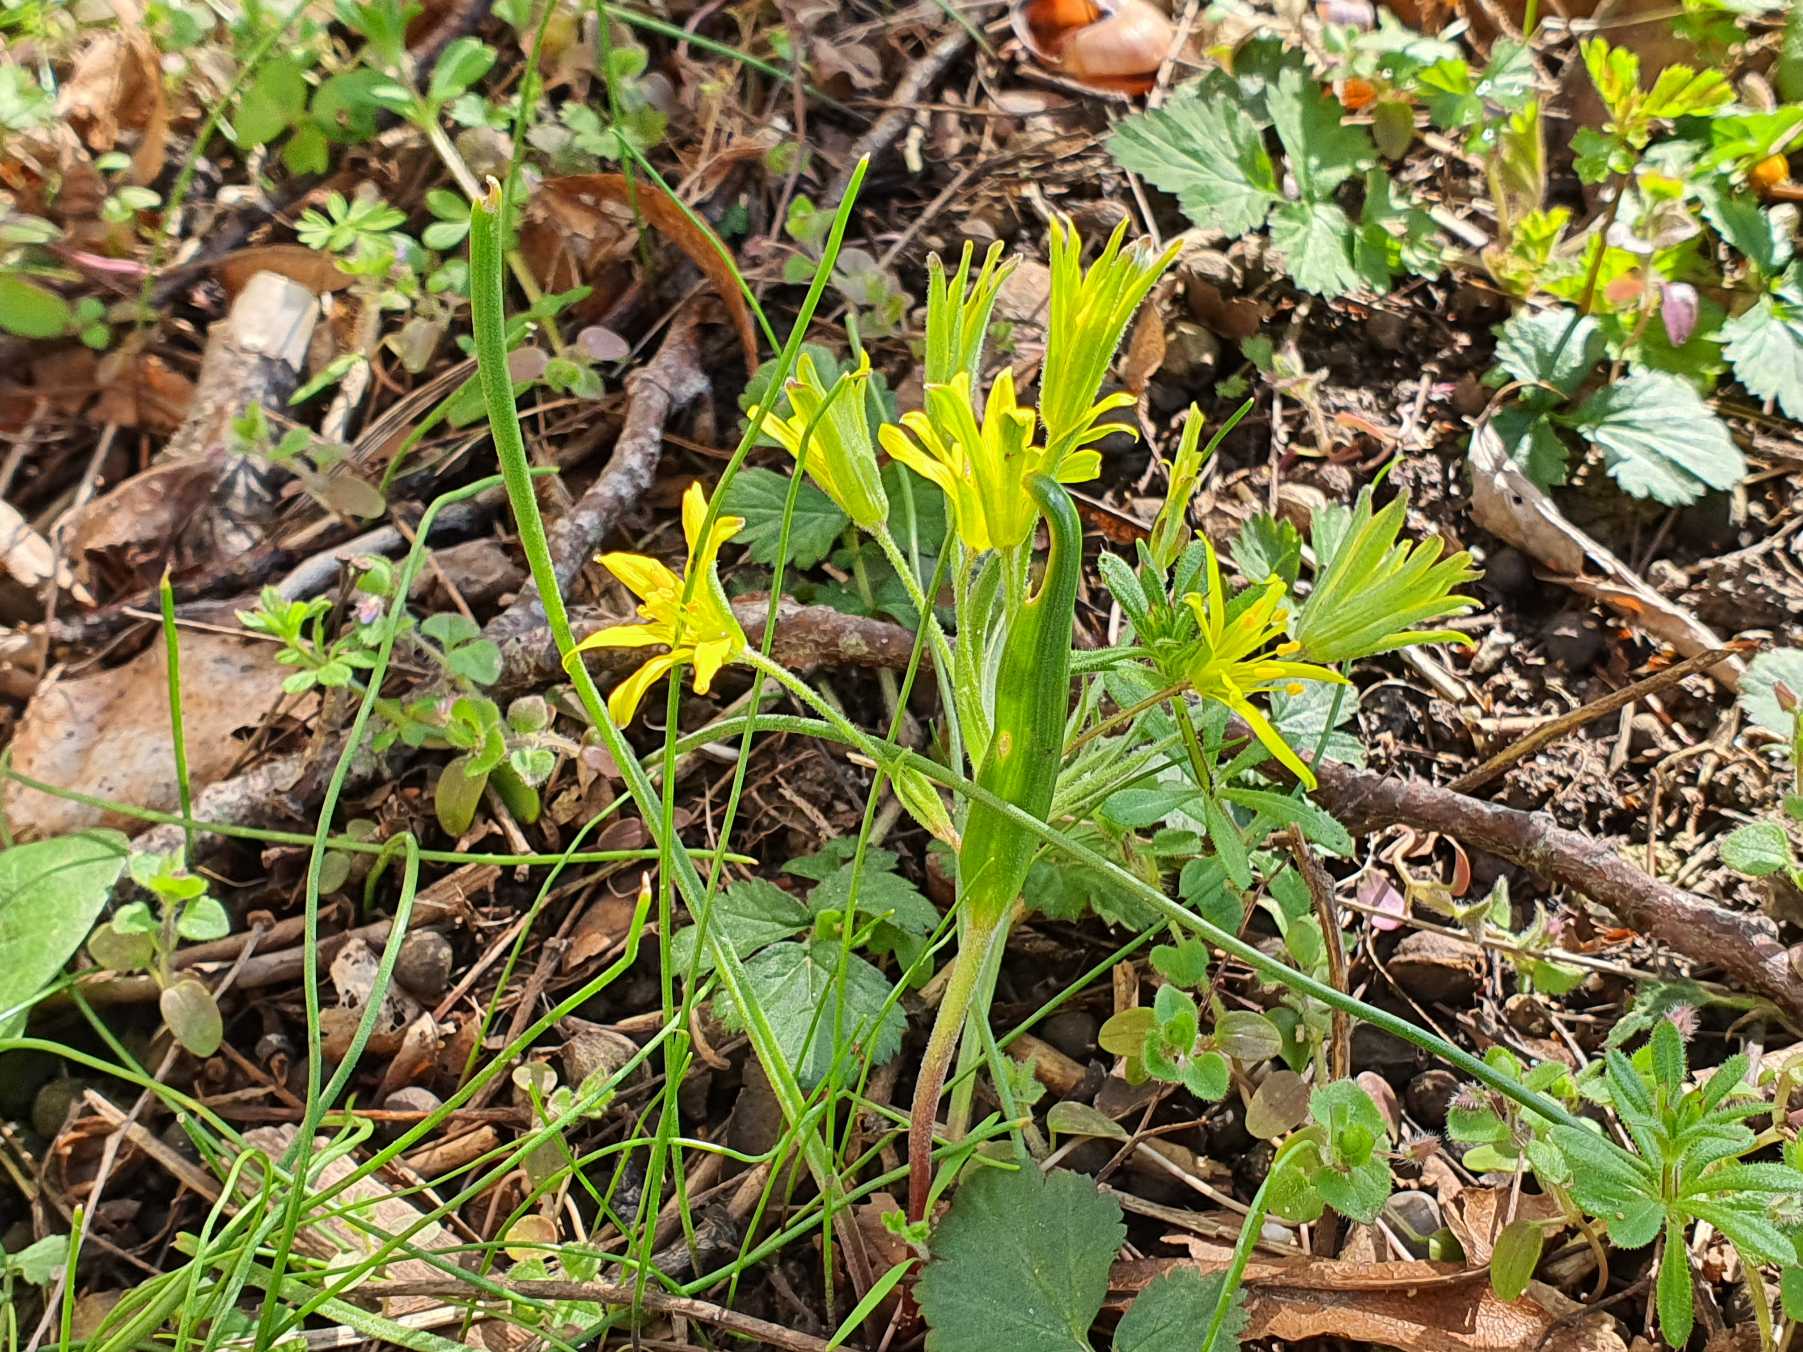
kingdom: Plantae
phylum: Tracheophyta
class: Liliopsida
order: Liliales
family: Liliaceae
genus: Gagea
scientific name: Gagea villosa
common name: Ager-guldstjerne
